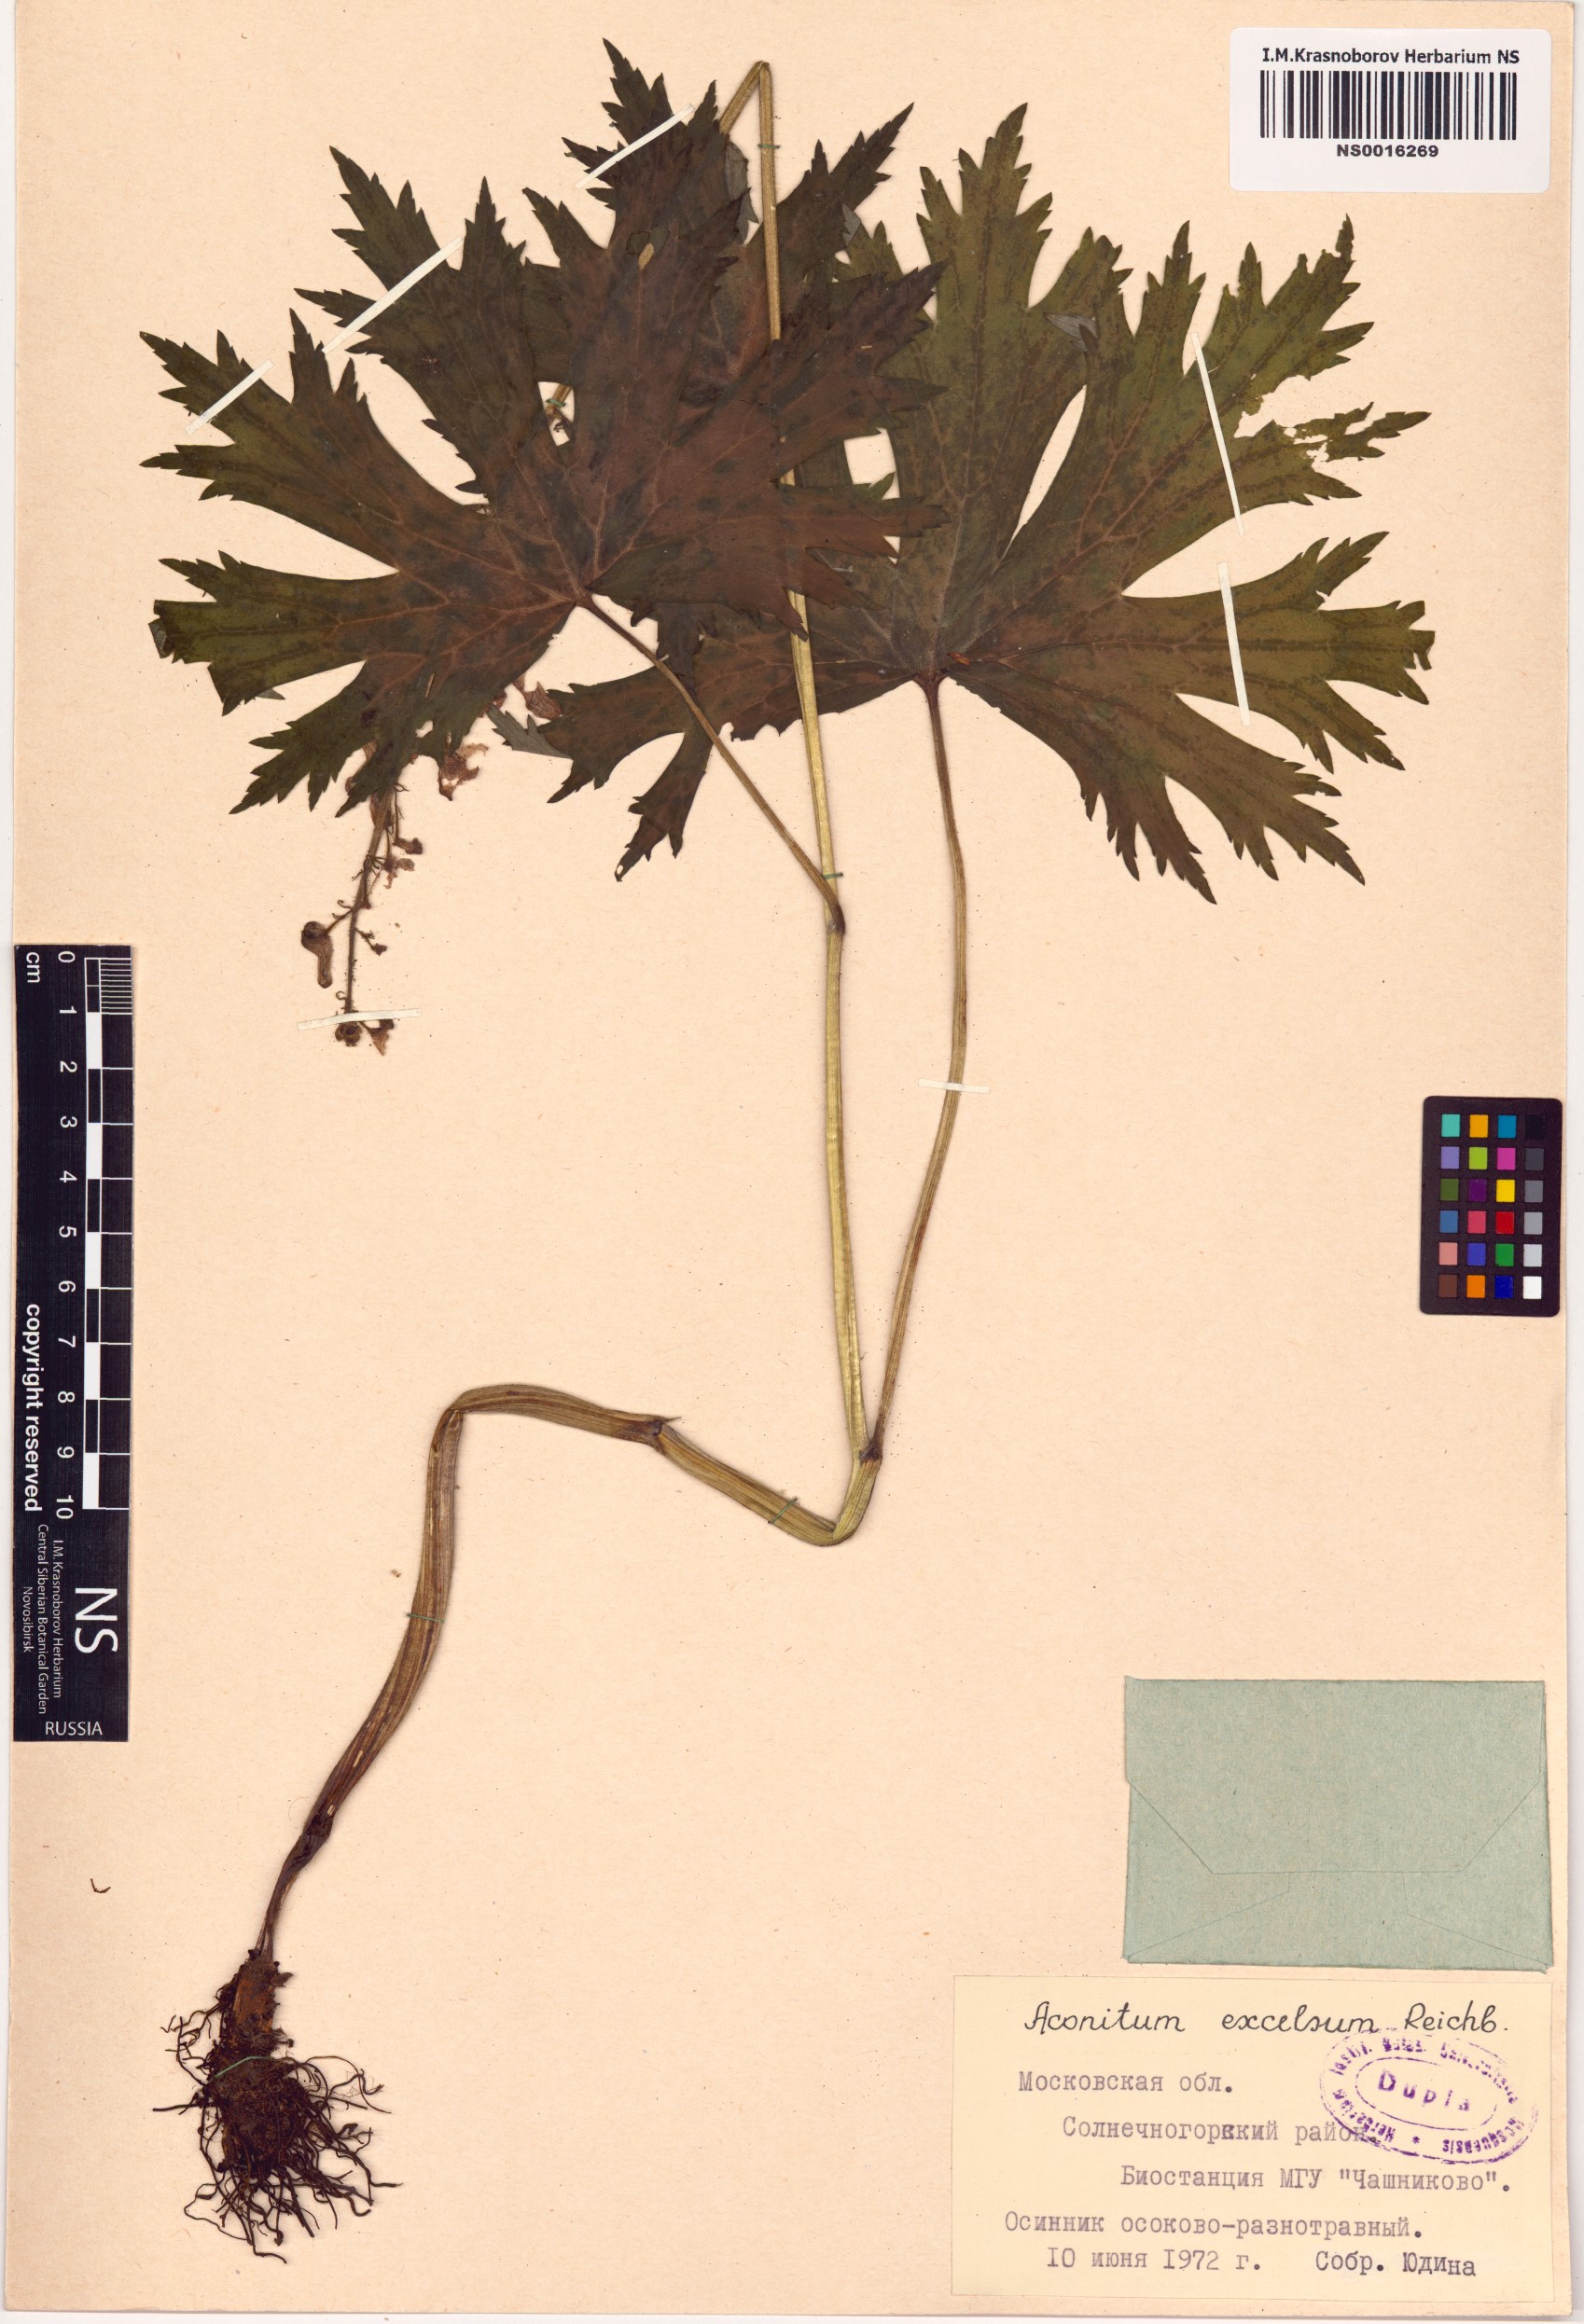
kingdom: Plantae
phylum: Tracheophyta
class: Magnoliopsida
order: Ranunculales
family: Ranunculaceae
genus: Aconitum
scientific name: Aconitum septentrionale
